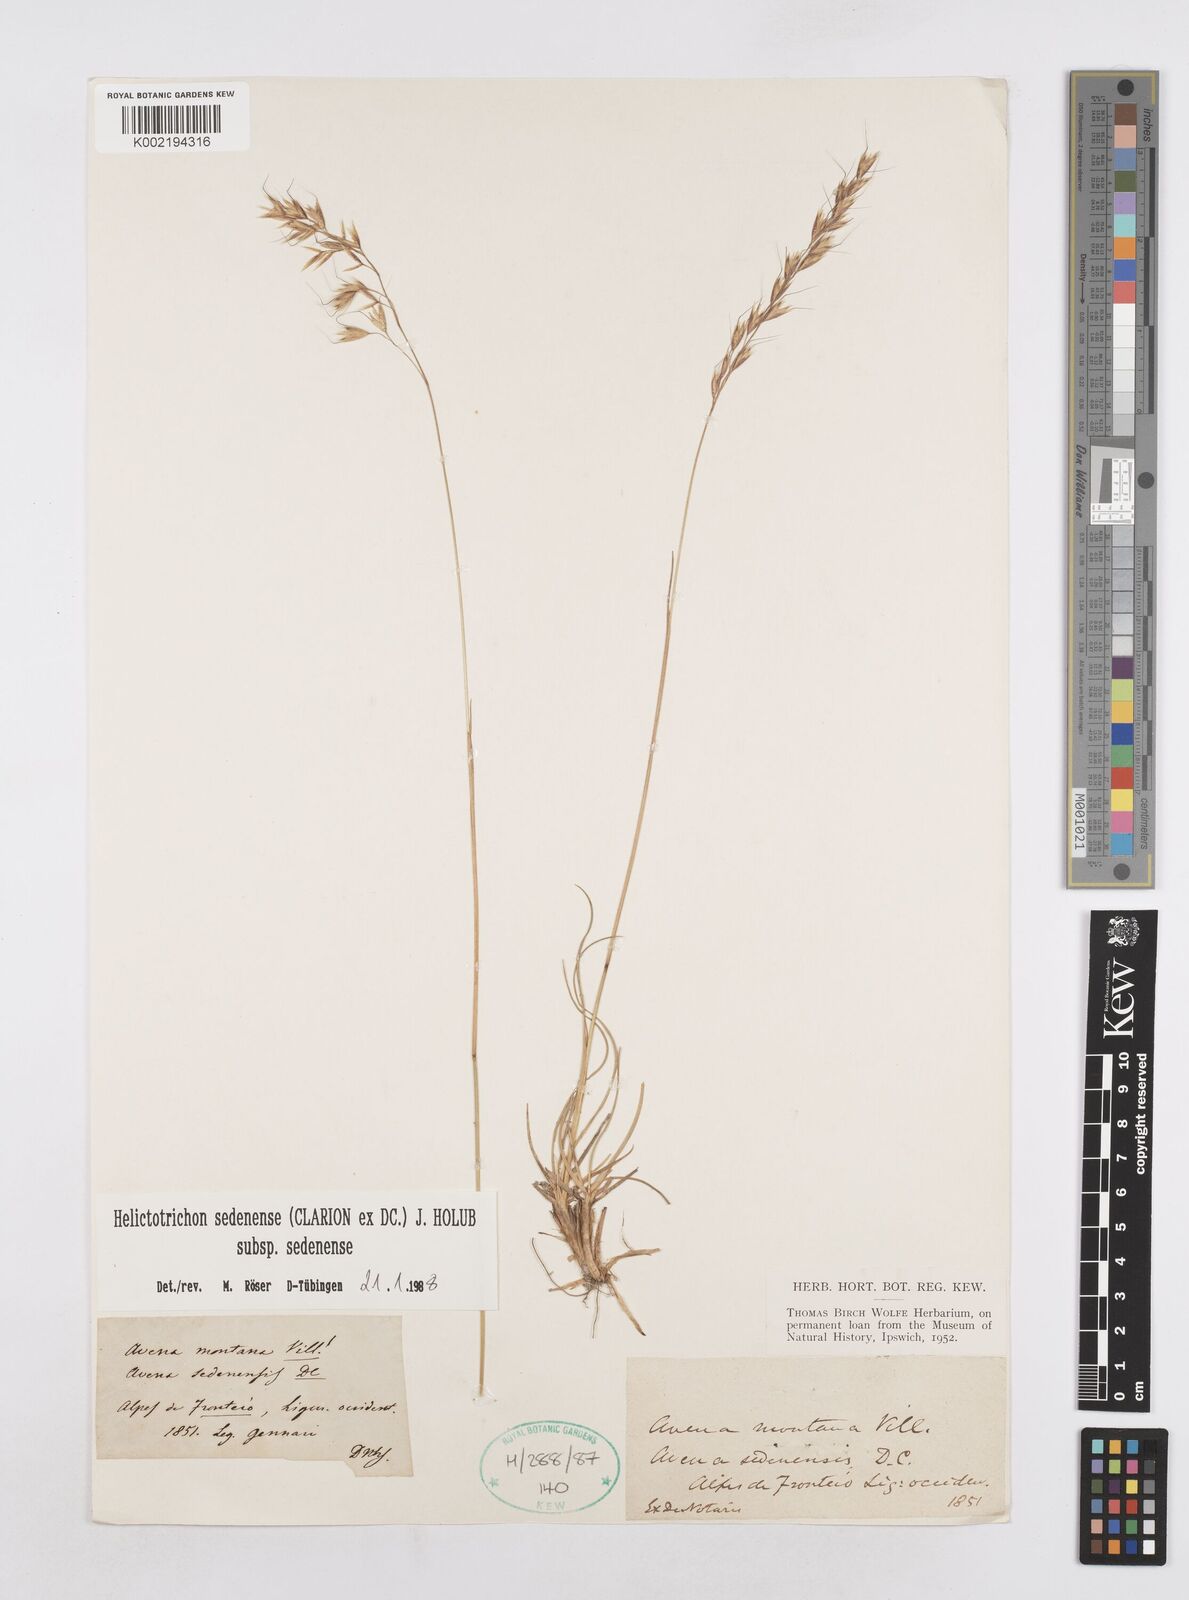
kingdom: Plantae
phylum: Tracheophyta
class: Liliopsida
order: Poales
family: Poaceae
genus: Helictotrichon
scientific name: Helictotrichon sedenense
